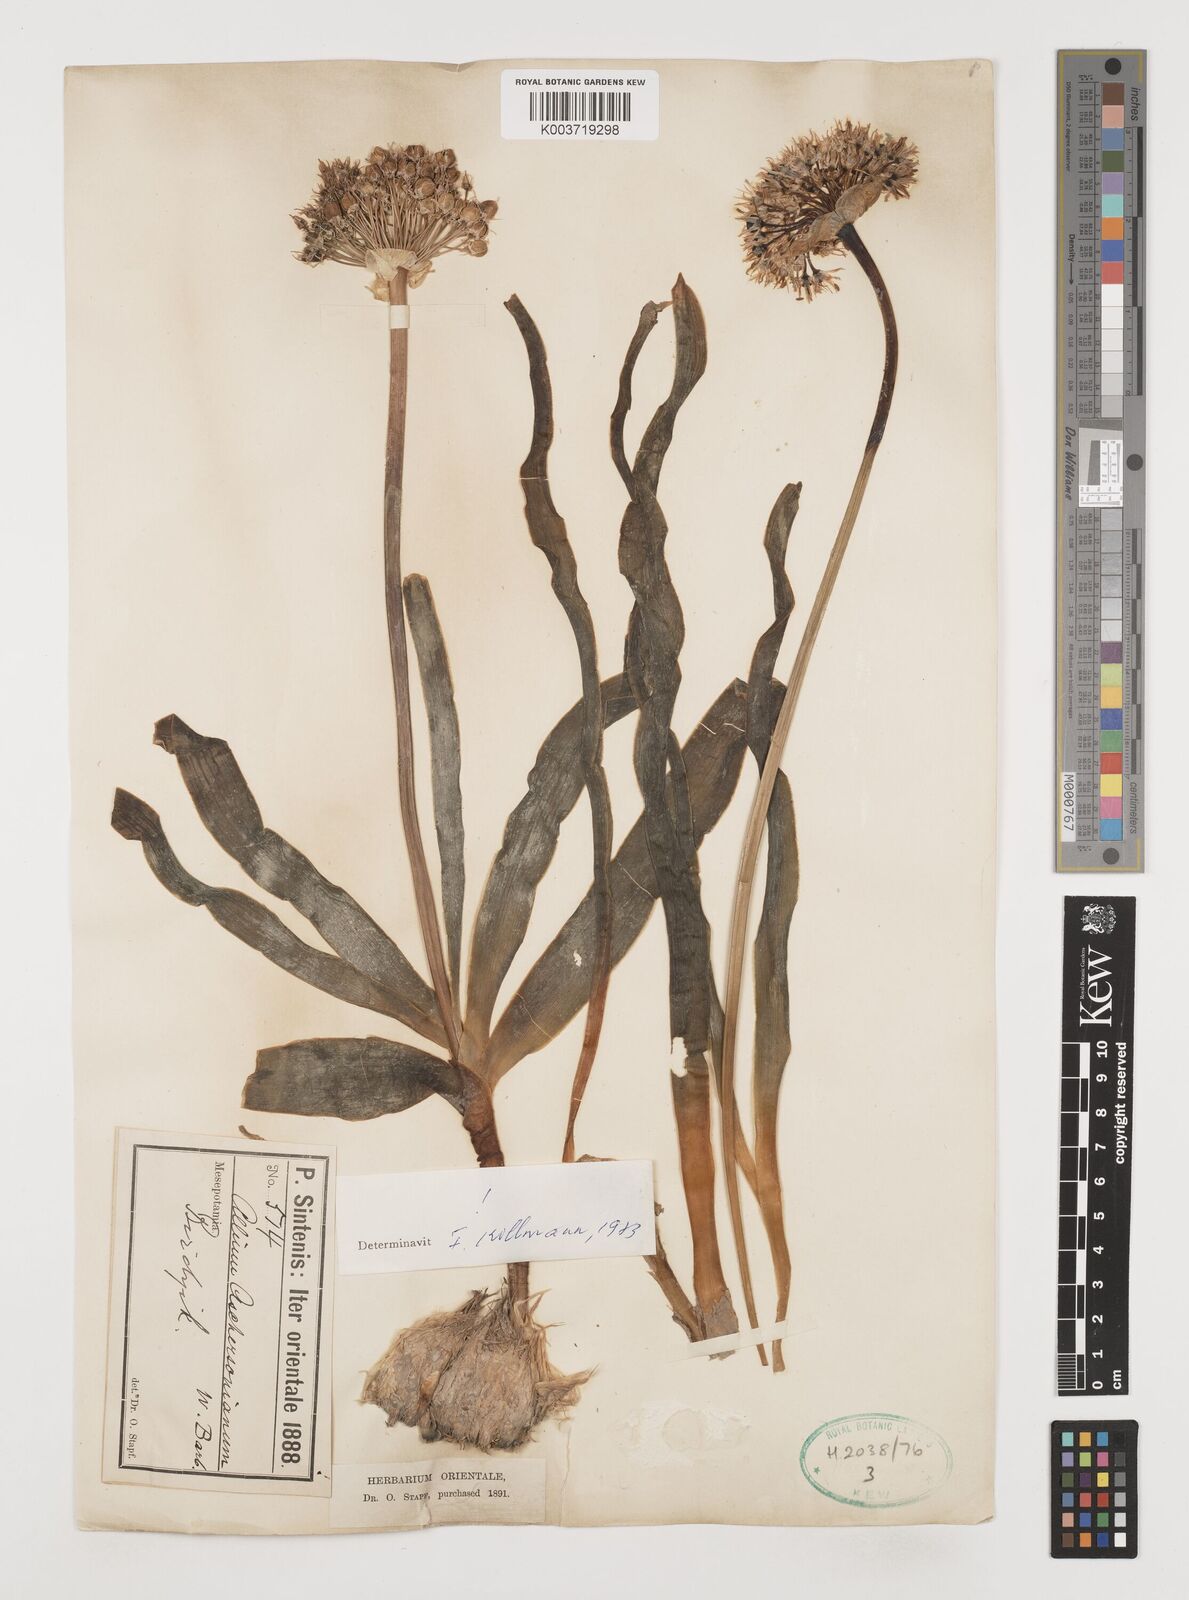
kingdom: Plantae
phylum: Tracheophyta
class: Liliopsida
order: Asparagales
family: Amaryllidaceae
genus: Allium
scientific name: Allium aschersonianum
